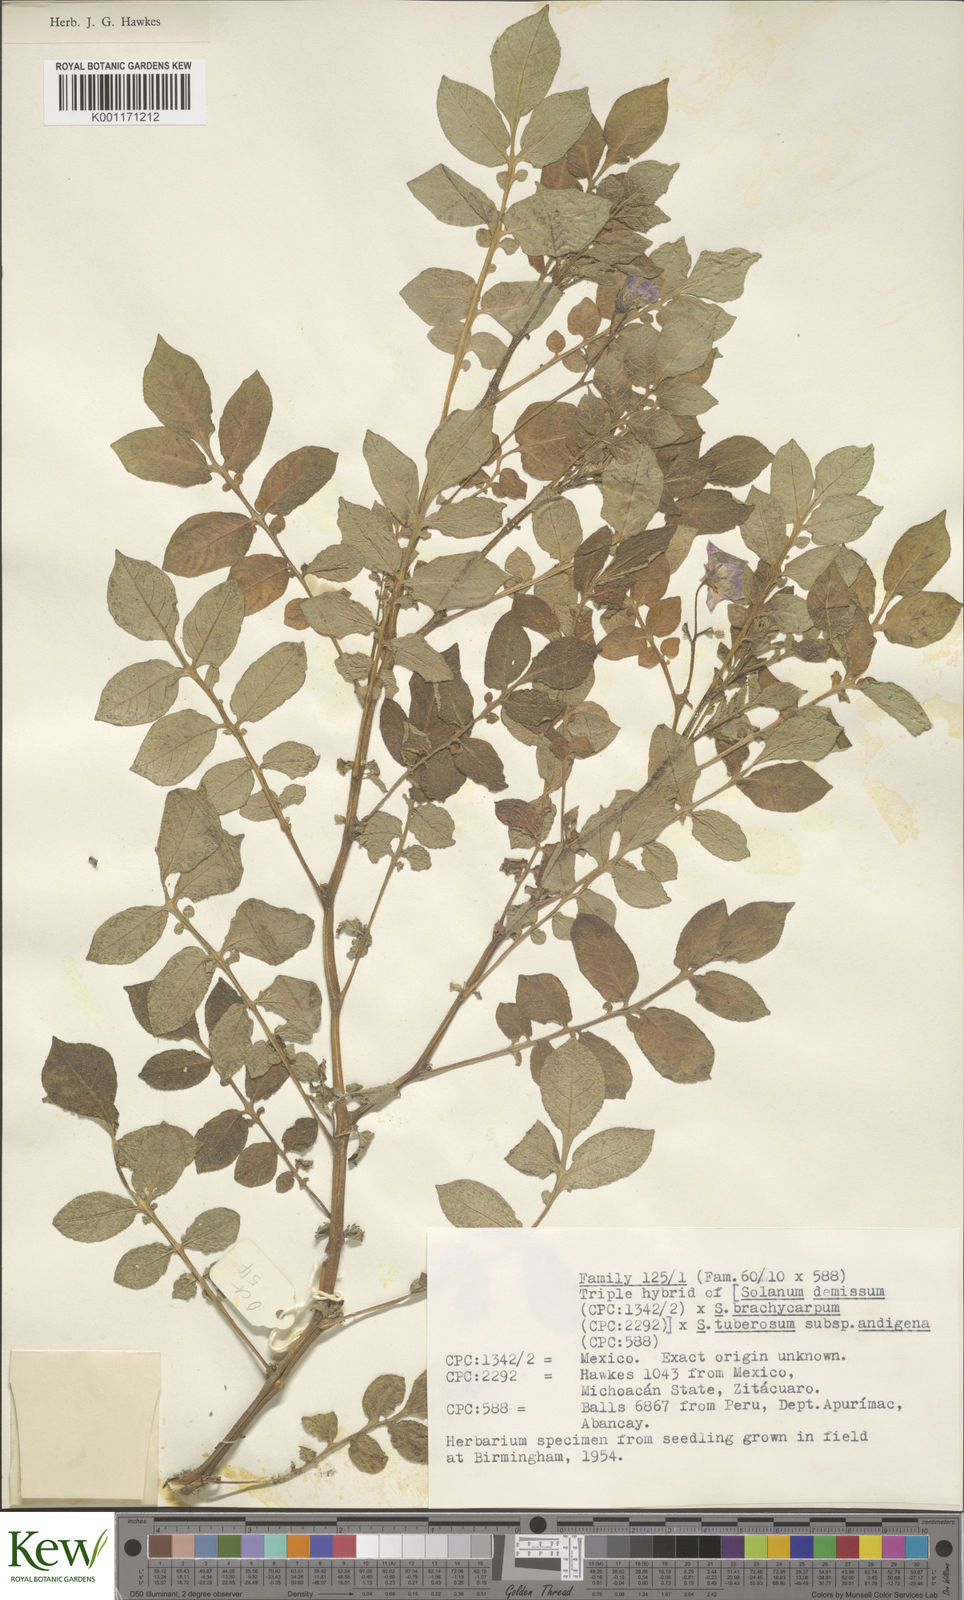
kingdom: Plantae
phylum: Tracheophyta
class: Magnoliopsida
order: Solanales
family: Solanaceae
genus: Solanum
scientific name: Solanum demissum
